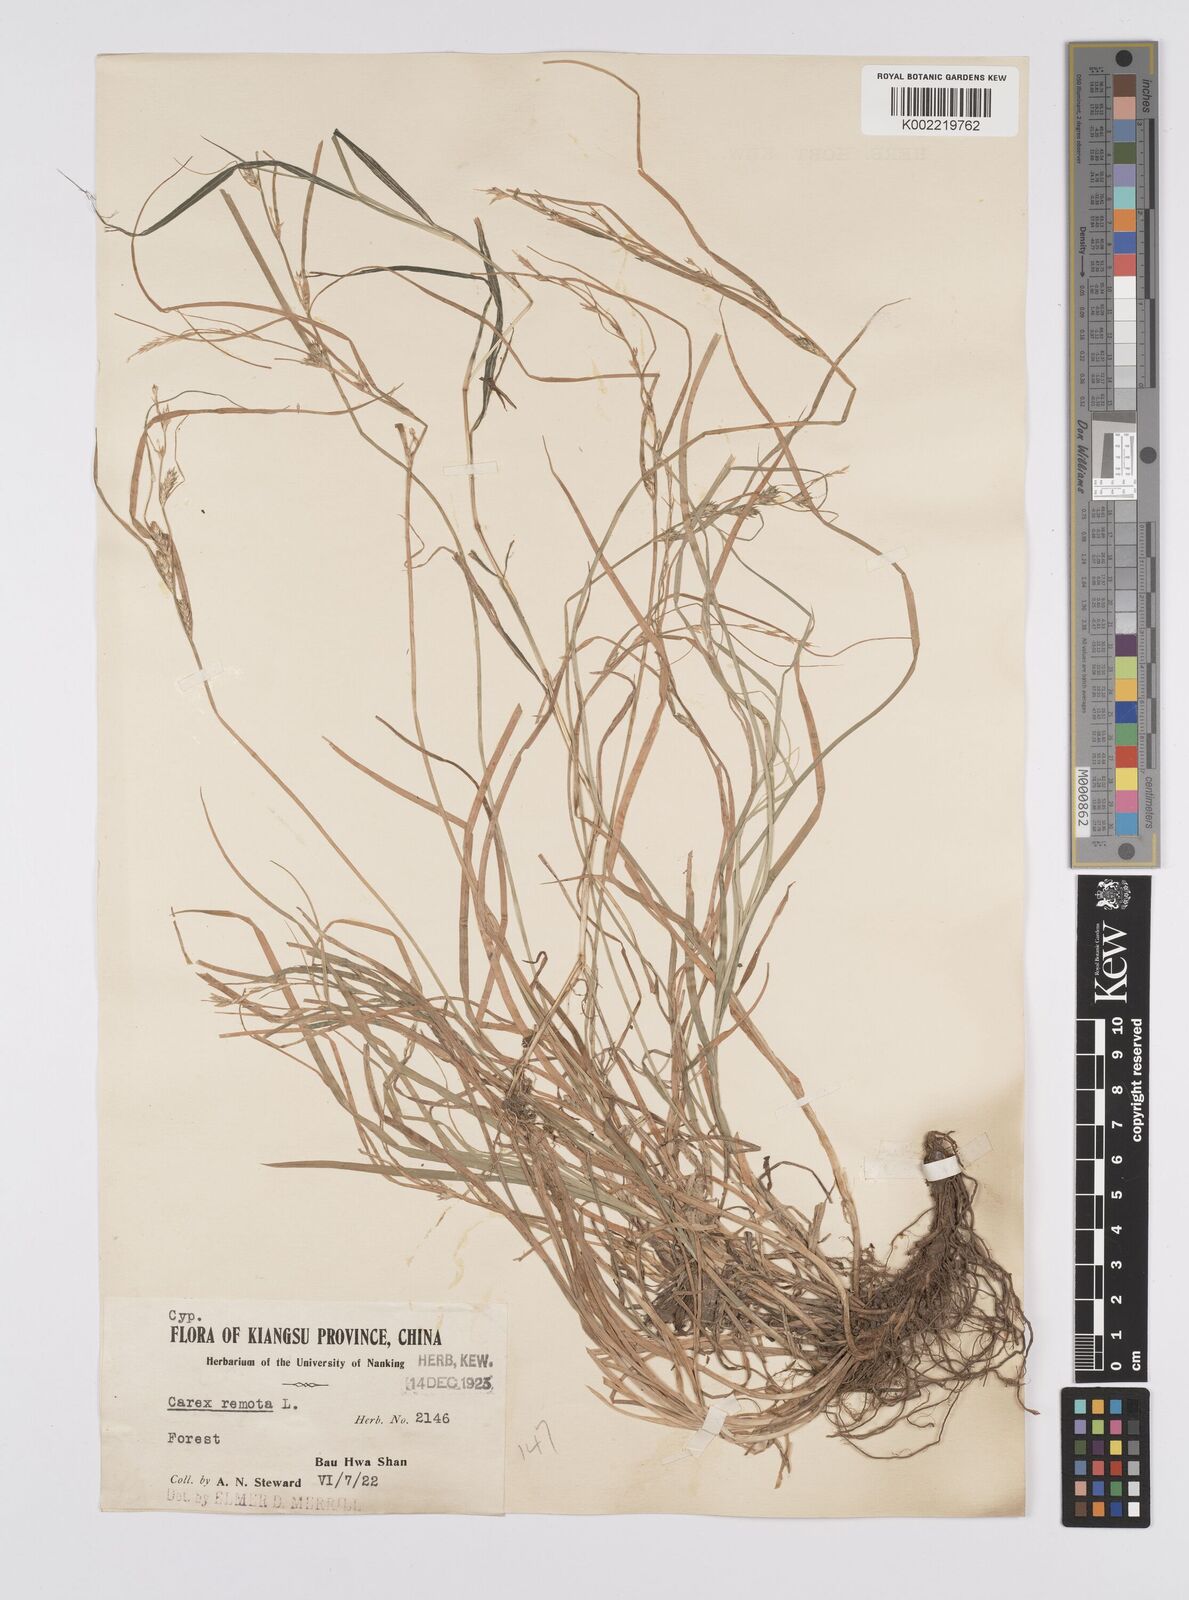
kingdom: Plantae
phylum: Tracheophyta
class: Liliopsida
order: Poales
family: Cyperaceae
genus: Carex
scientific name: Carex remota
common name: Remote sedge
